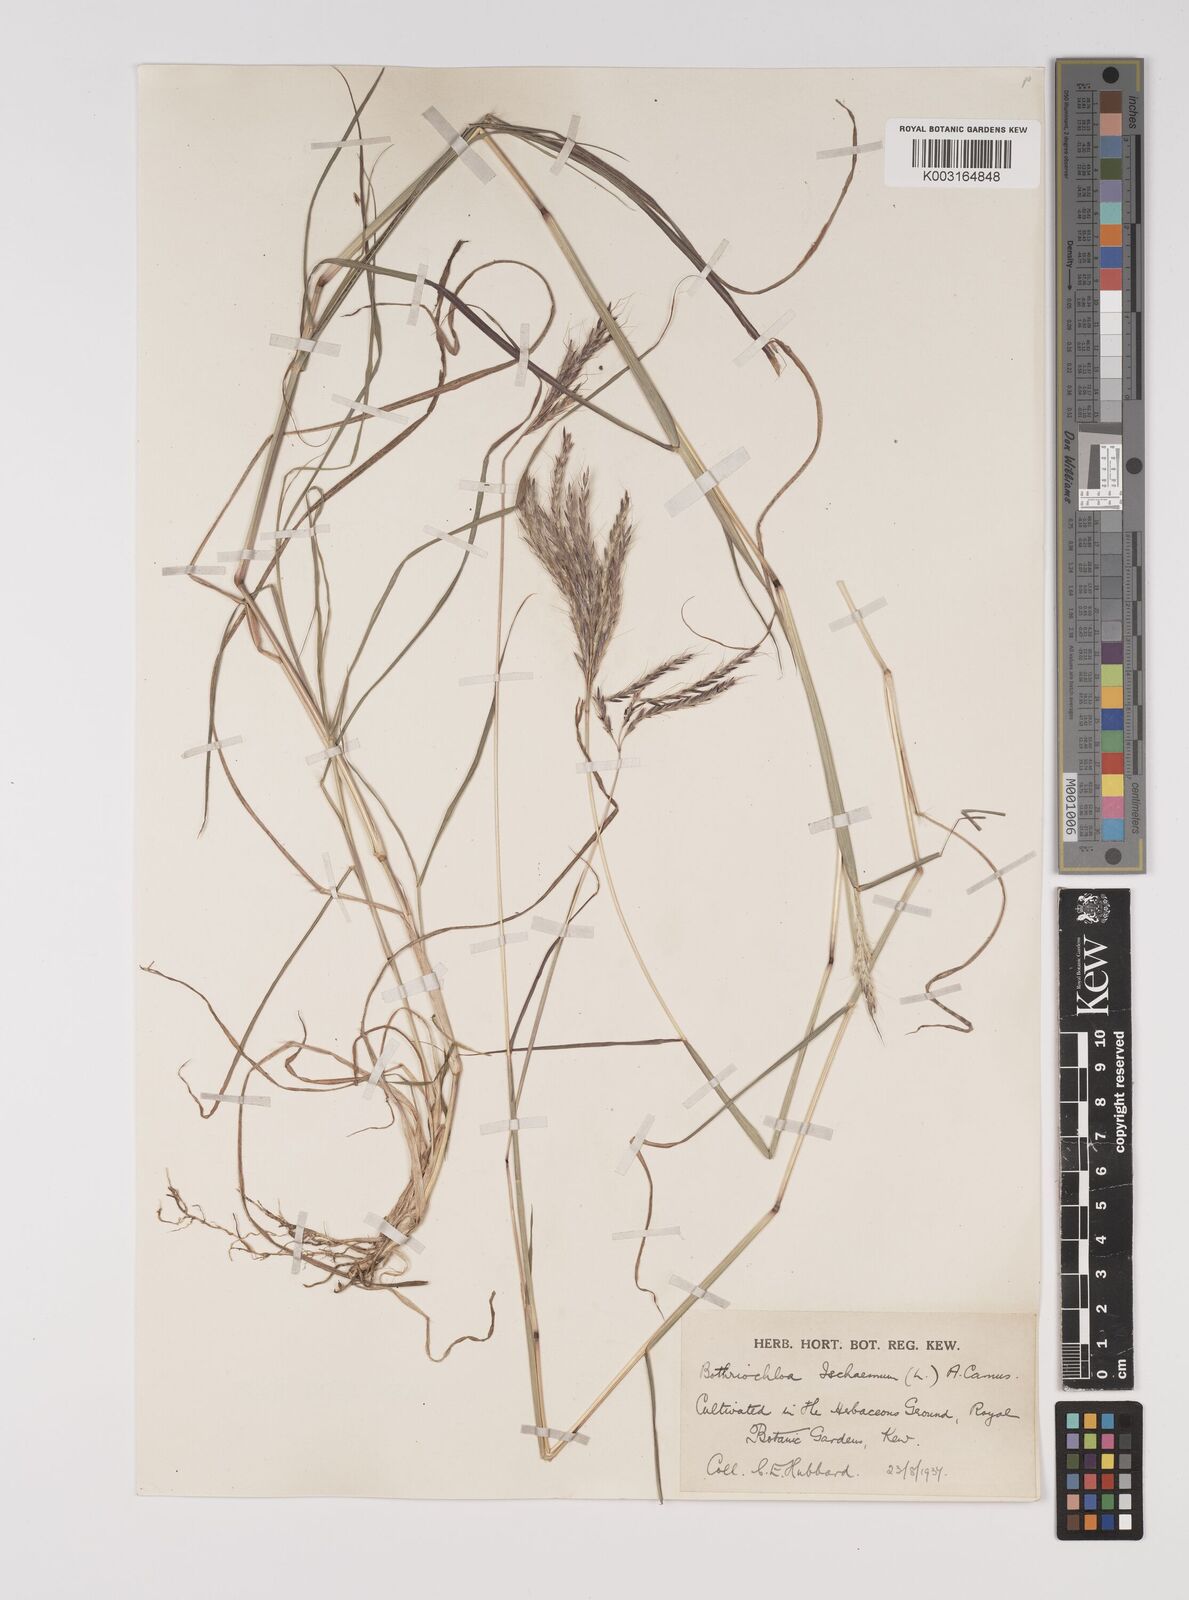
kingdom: Plantae
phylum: Tracheophyta
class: Liliopsida
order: Poales
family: Poaceae
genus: Bothriochloa
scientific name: Bothriochloa ischaemum
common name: Yellow bluestem
